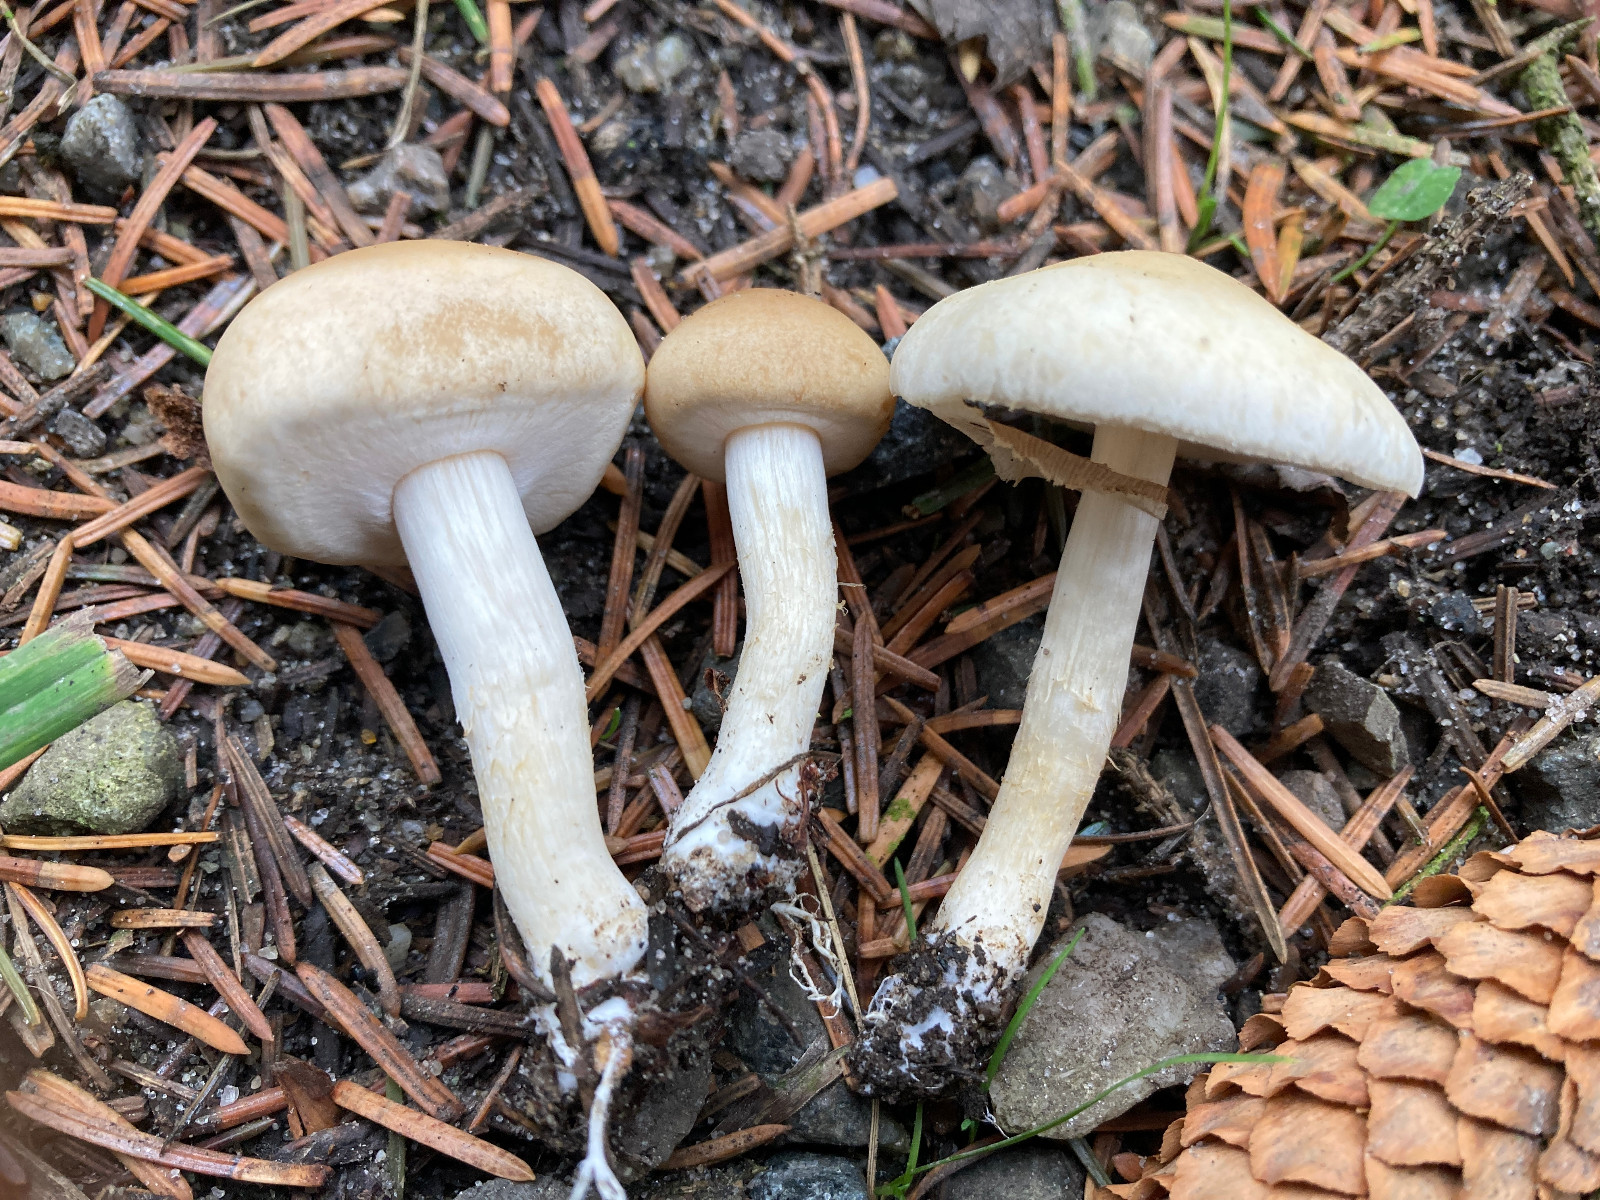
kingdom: Fungi
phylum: Basidiomycota
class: Agaricomycetes
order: Agaricales
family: Strophariaceae
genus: Agrocybe
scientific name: Agrocybe praecox
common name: tidlig agerhat
